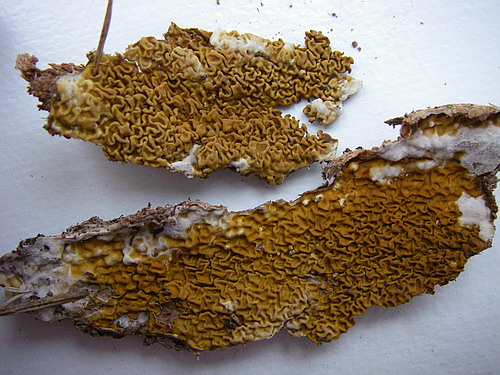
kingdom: Fungi
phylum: Basidiomycota
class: Agaricomycetes
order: Boletales
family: Serpulaceae
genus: Serpula
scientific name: Serpula himantioides
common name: tyndkødet hussvamp
